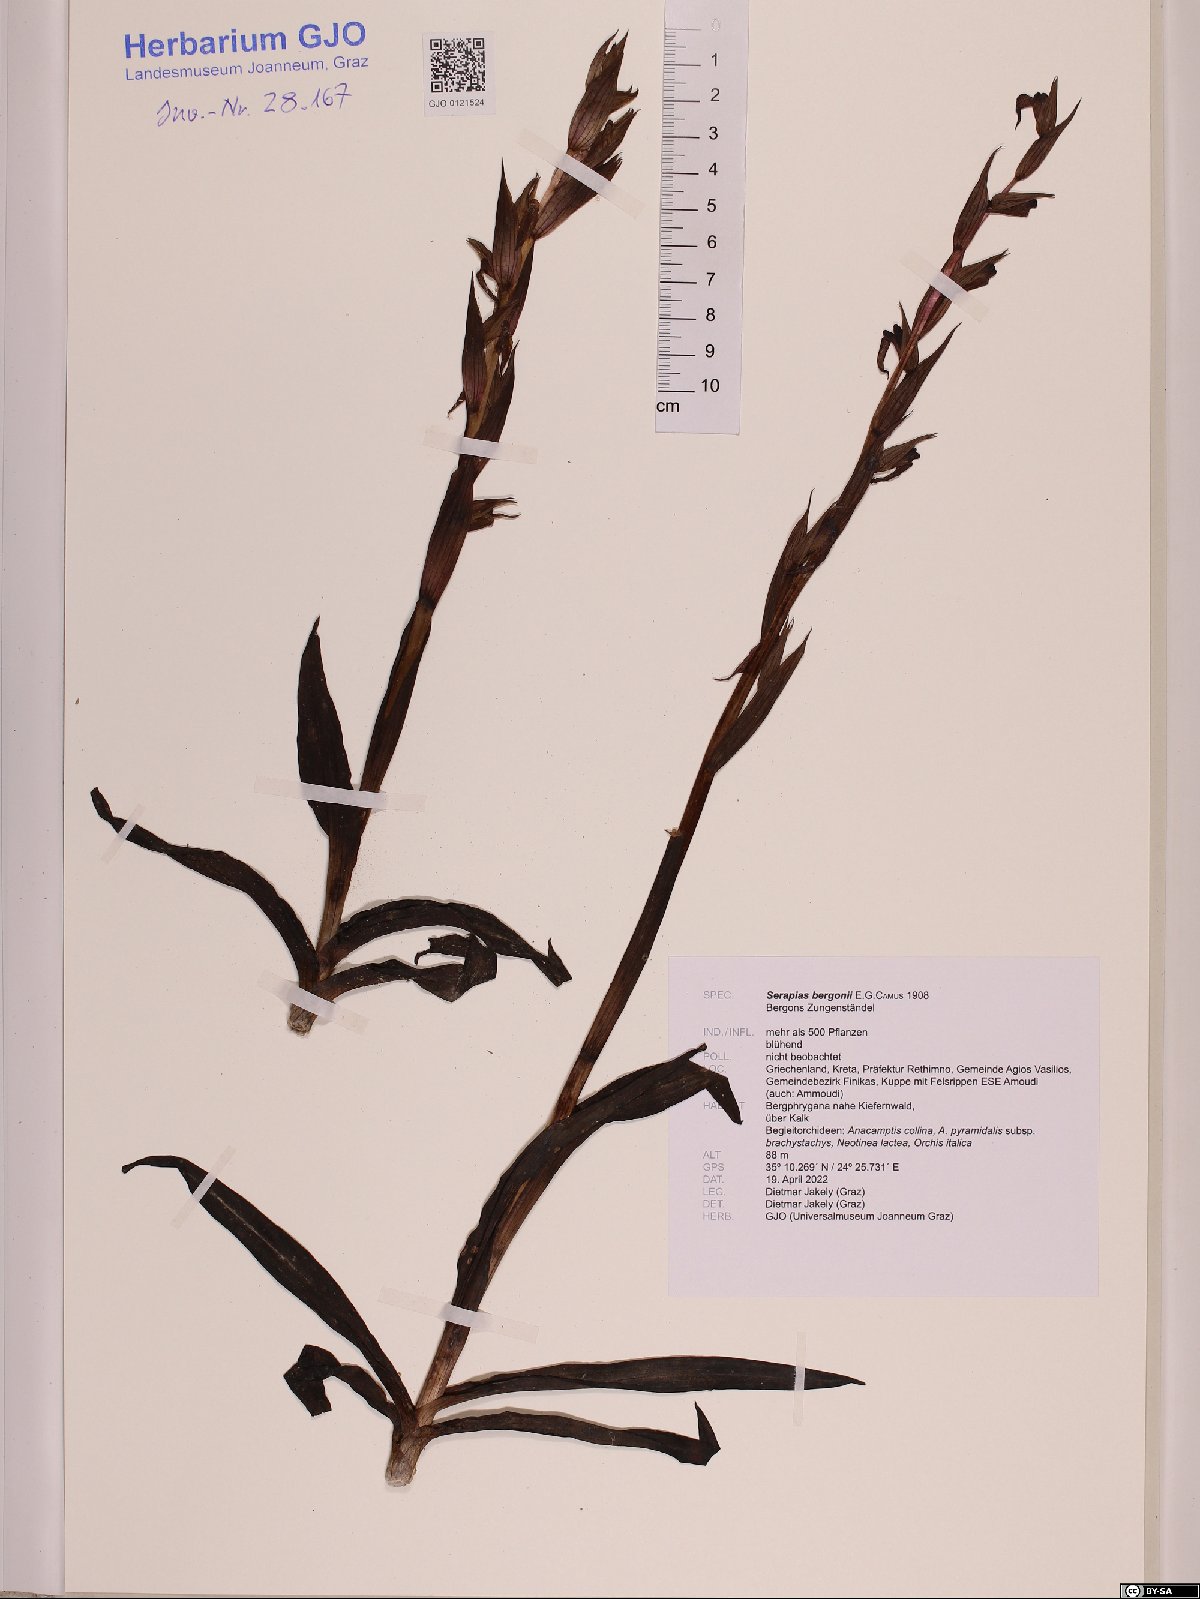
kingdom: Plantae
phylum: Tracheophyta
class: Liliopsida
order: Asparagales
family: Orchidaceae
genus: Serapias
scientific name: Serapias bergonii
